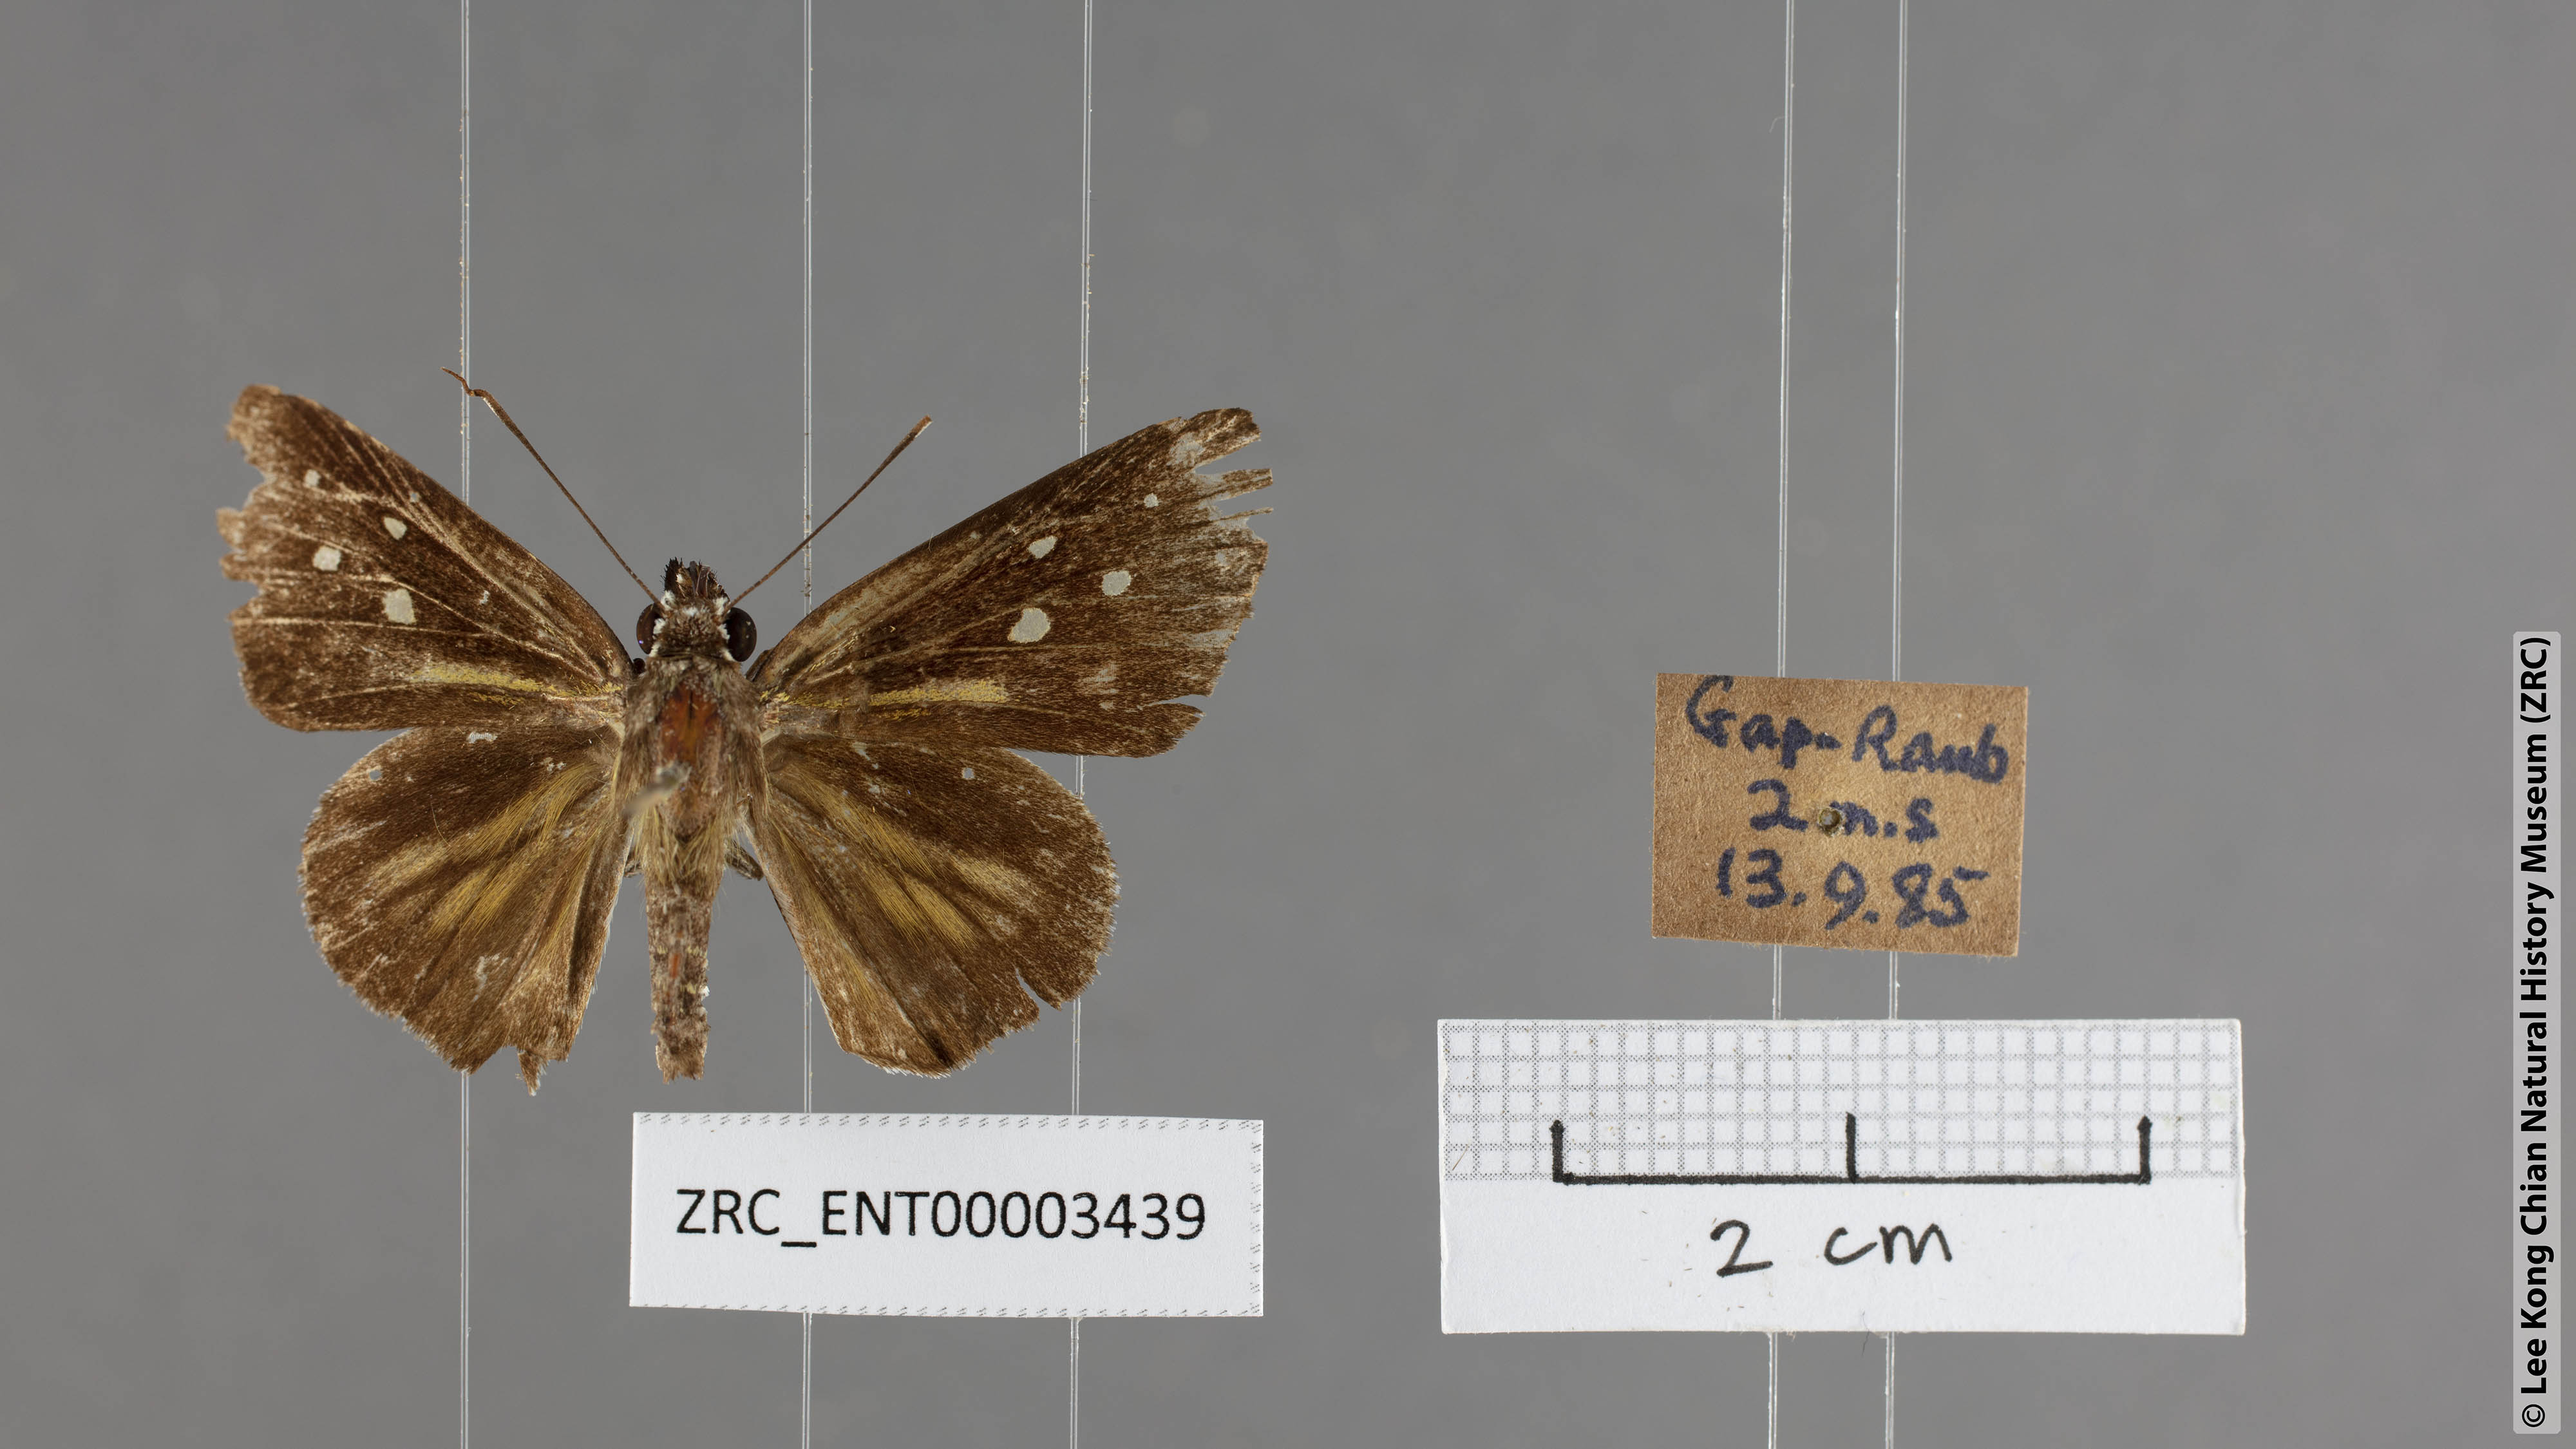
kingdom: Animalia
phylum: Arthropoda
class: Insecta
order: Lepidoptera
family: Hesperiidae
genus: Plastingia
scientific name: Plastingia naga
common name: Chequered lancer
